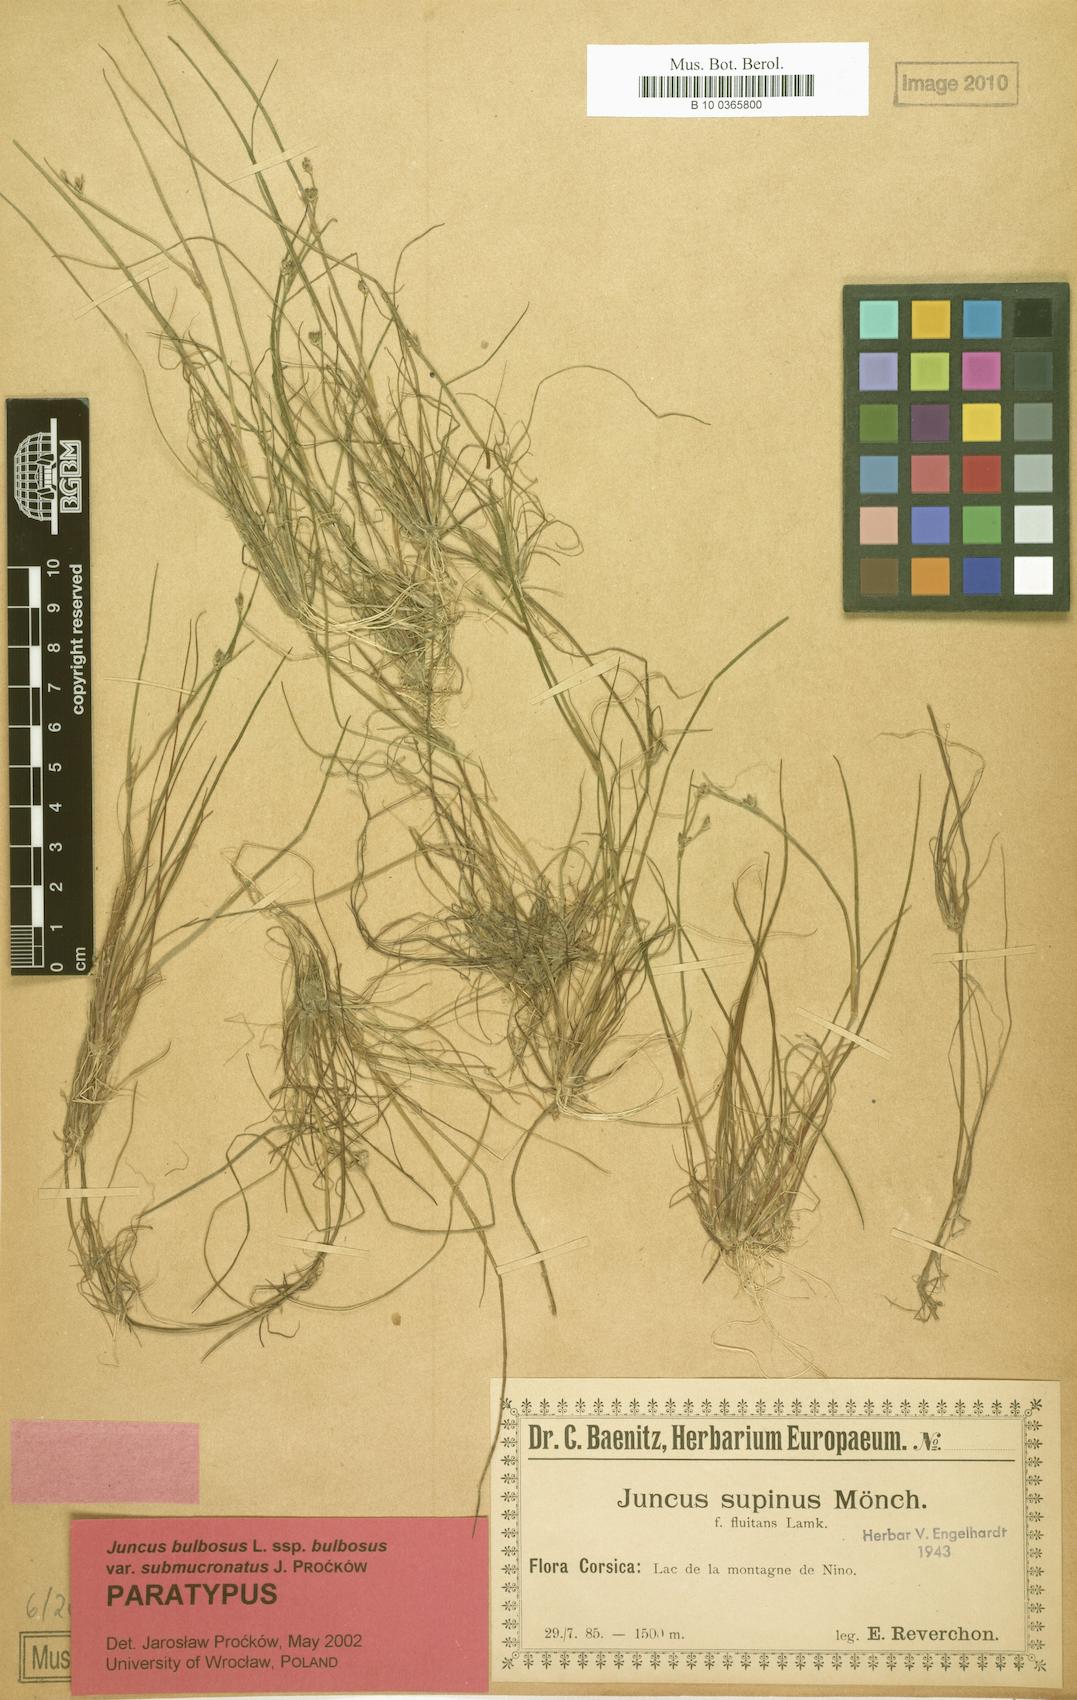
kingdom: Plantae
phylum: Tracheophyta
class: Liliopsida
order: Poales
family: Juncaceae
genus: Juncus
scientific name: Juncus bulbosus
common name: Bulbous rush
